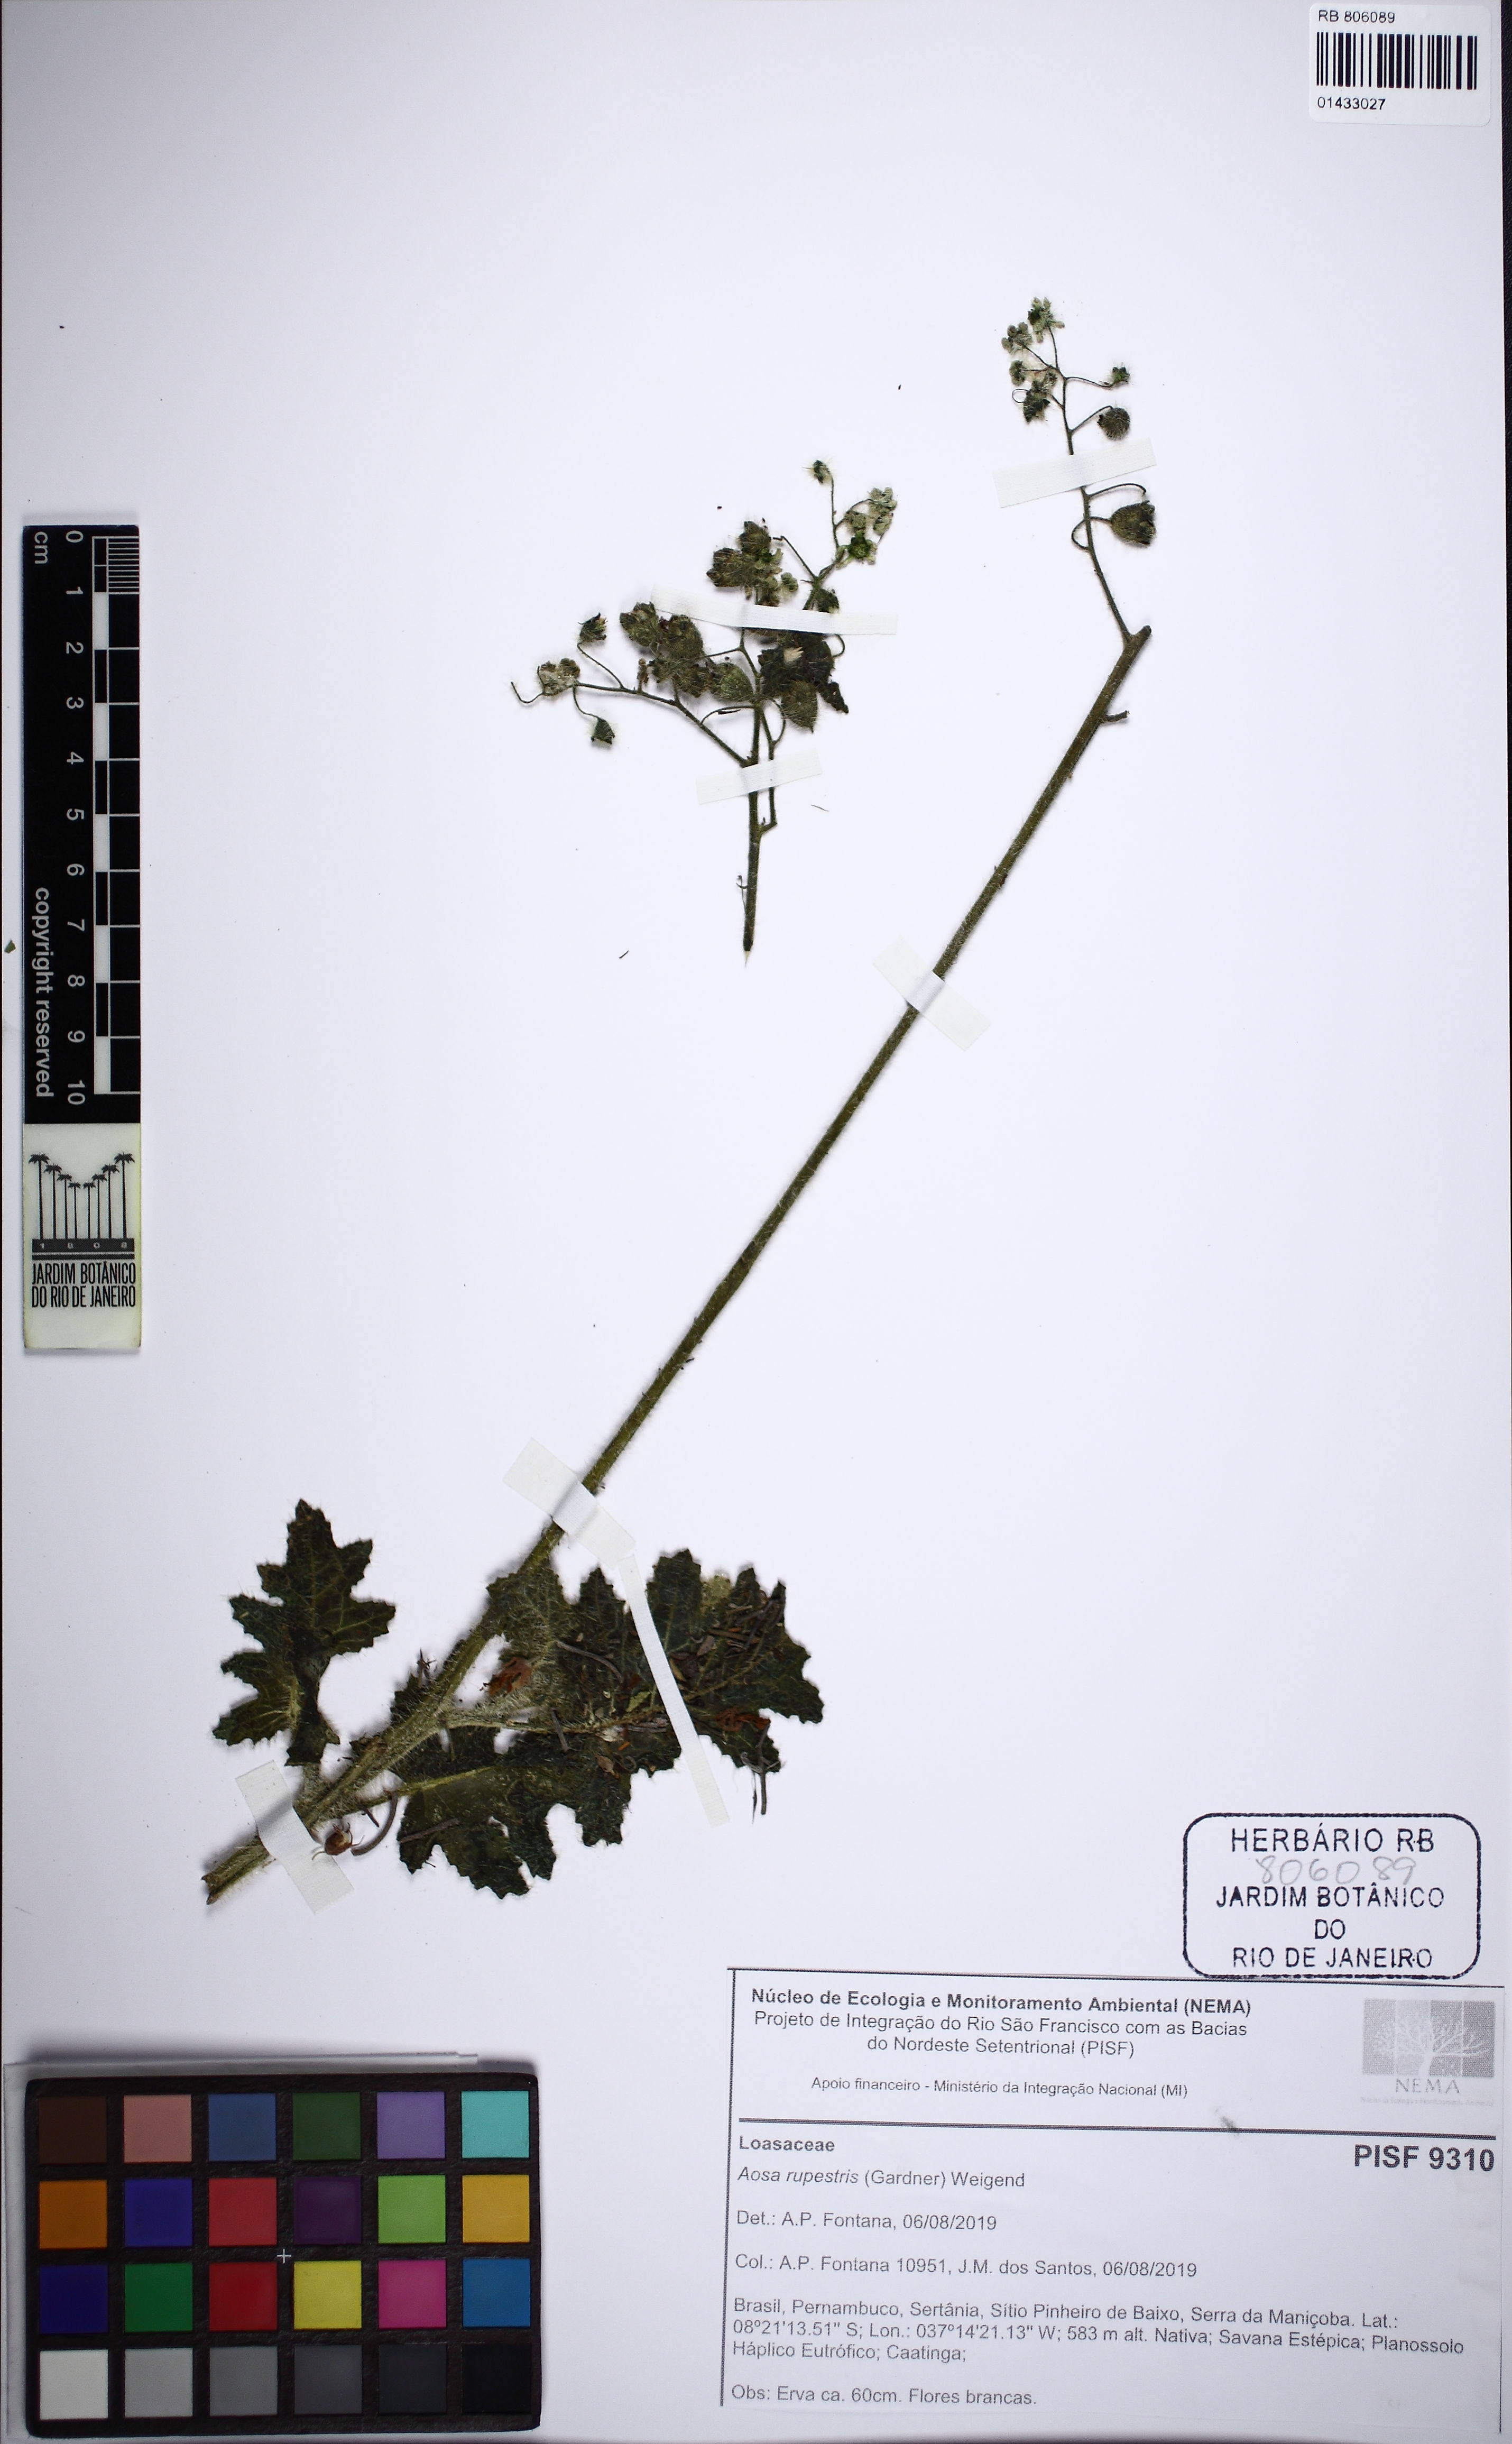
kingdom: Plantae
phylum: Tracheophyta
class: Magnoliopsida
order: Cornales
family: Loasaceae
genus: Aosa
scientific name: Aosa rupestris
